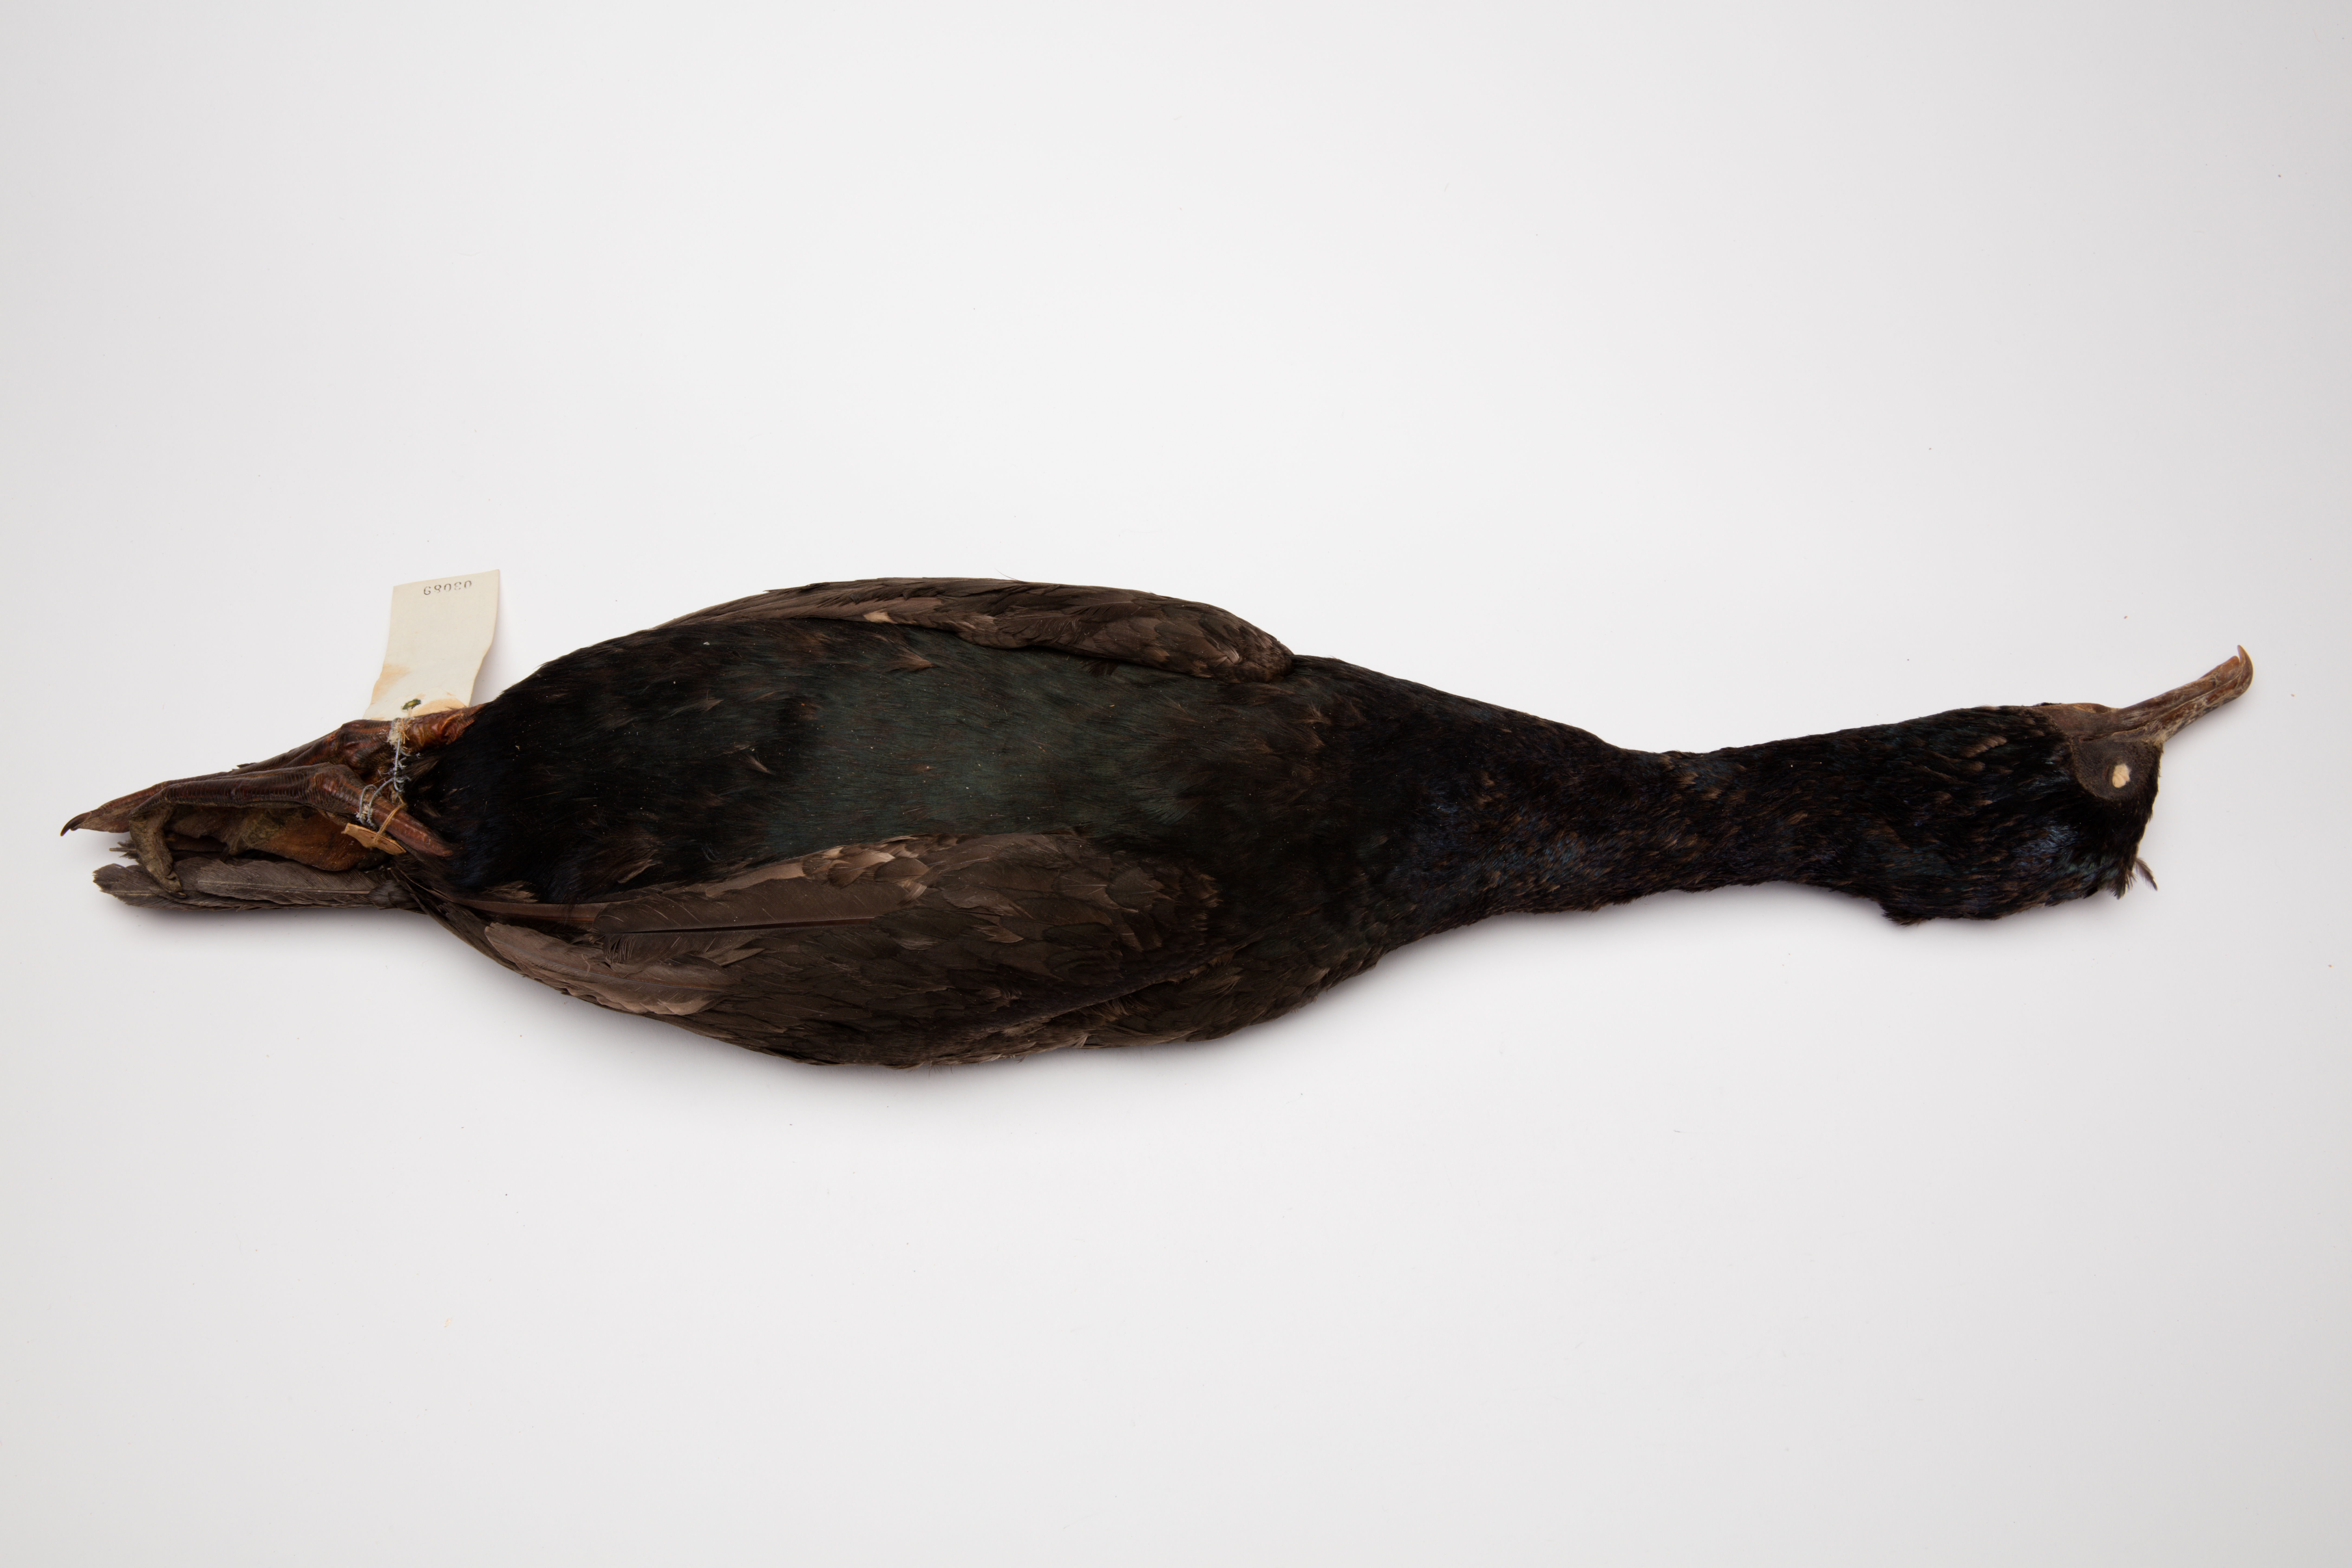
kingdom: Animalia
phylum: Chordata
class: Aves
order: Suliformes
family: Phalacrocoracidae
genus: Leucocarbo
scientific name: Leucocarbo chalconotus
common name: Stewart shag
